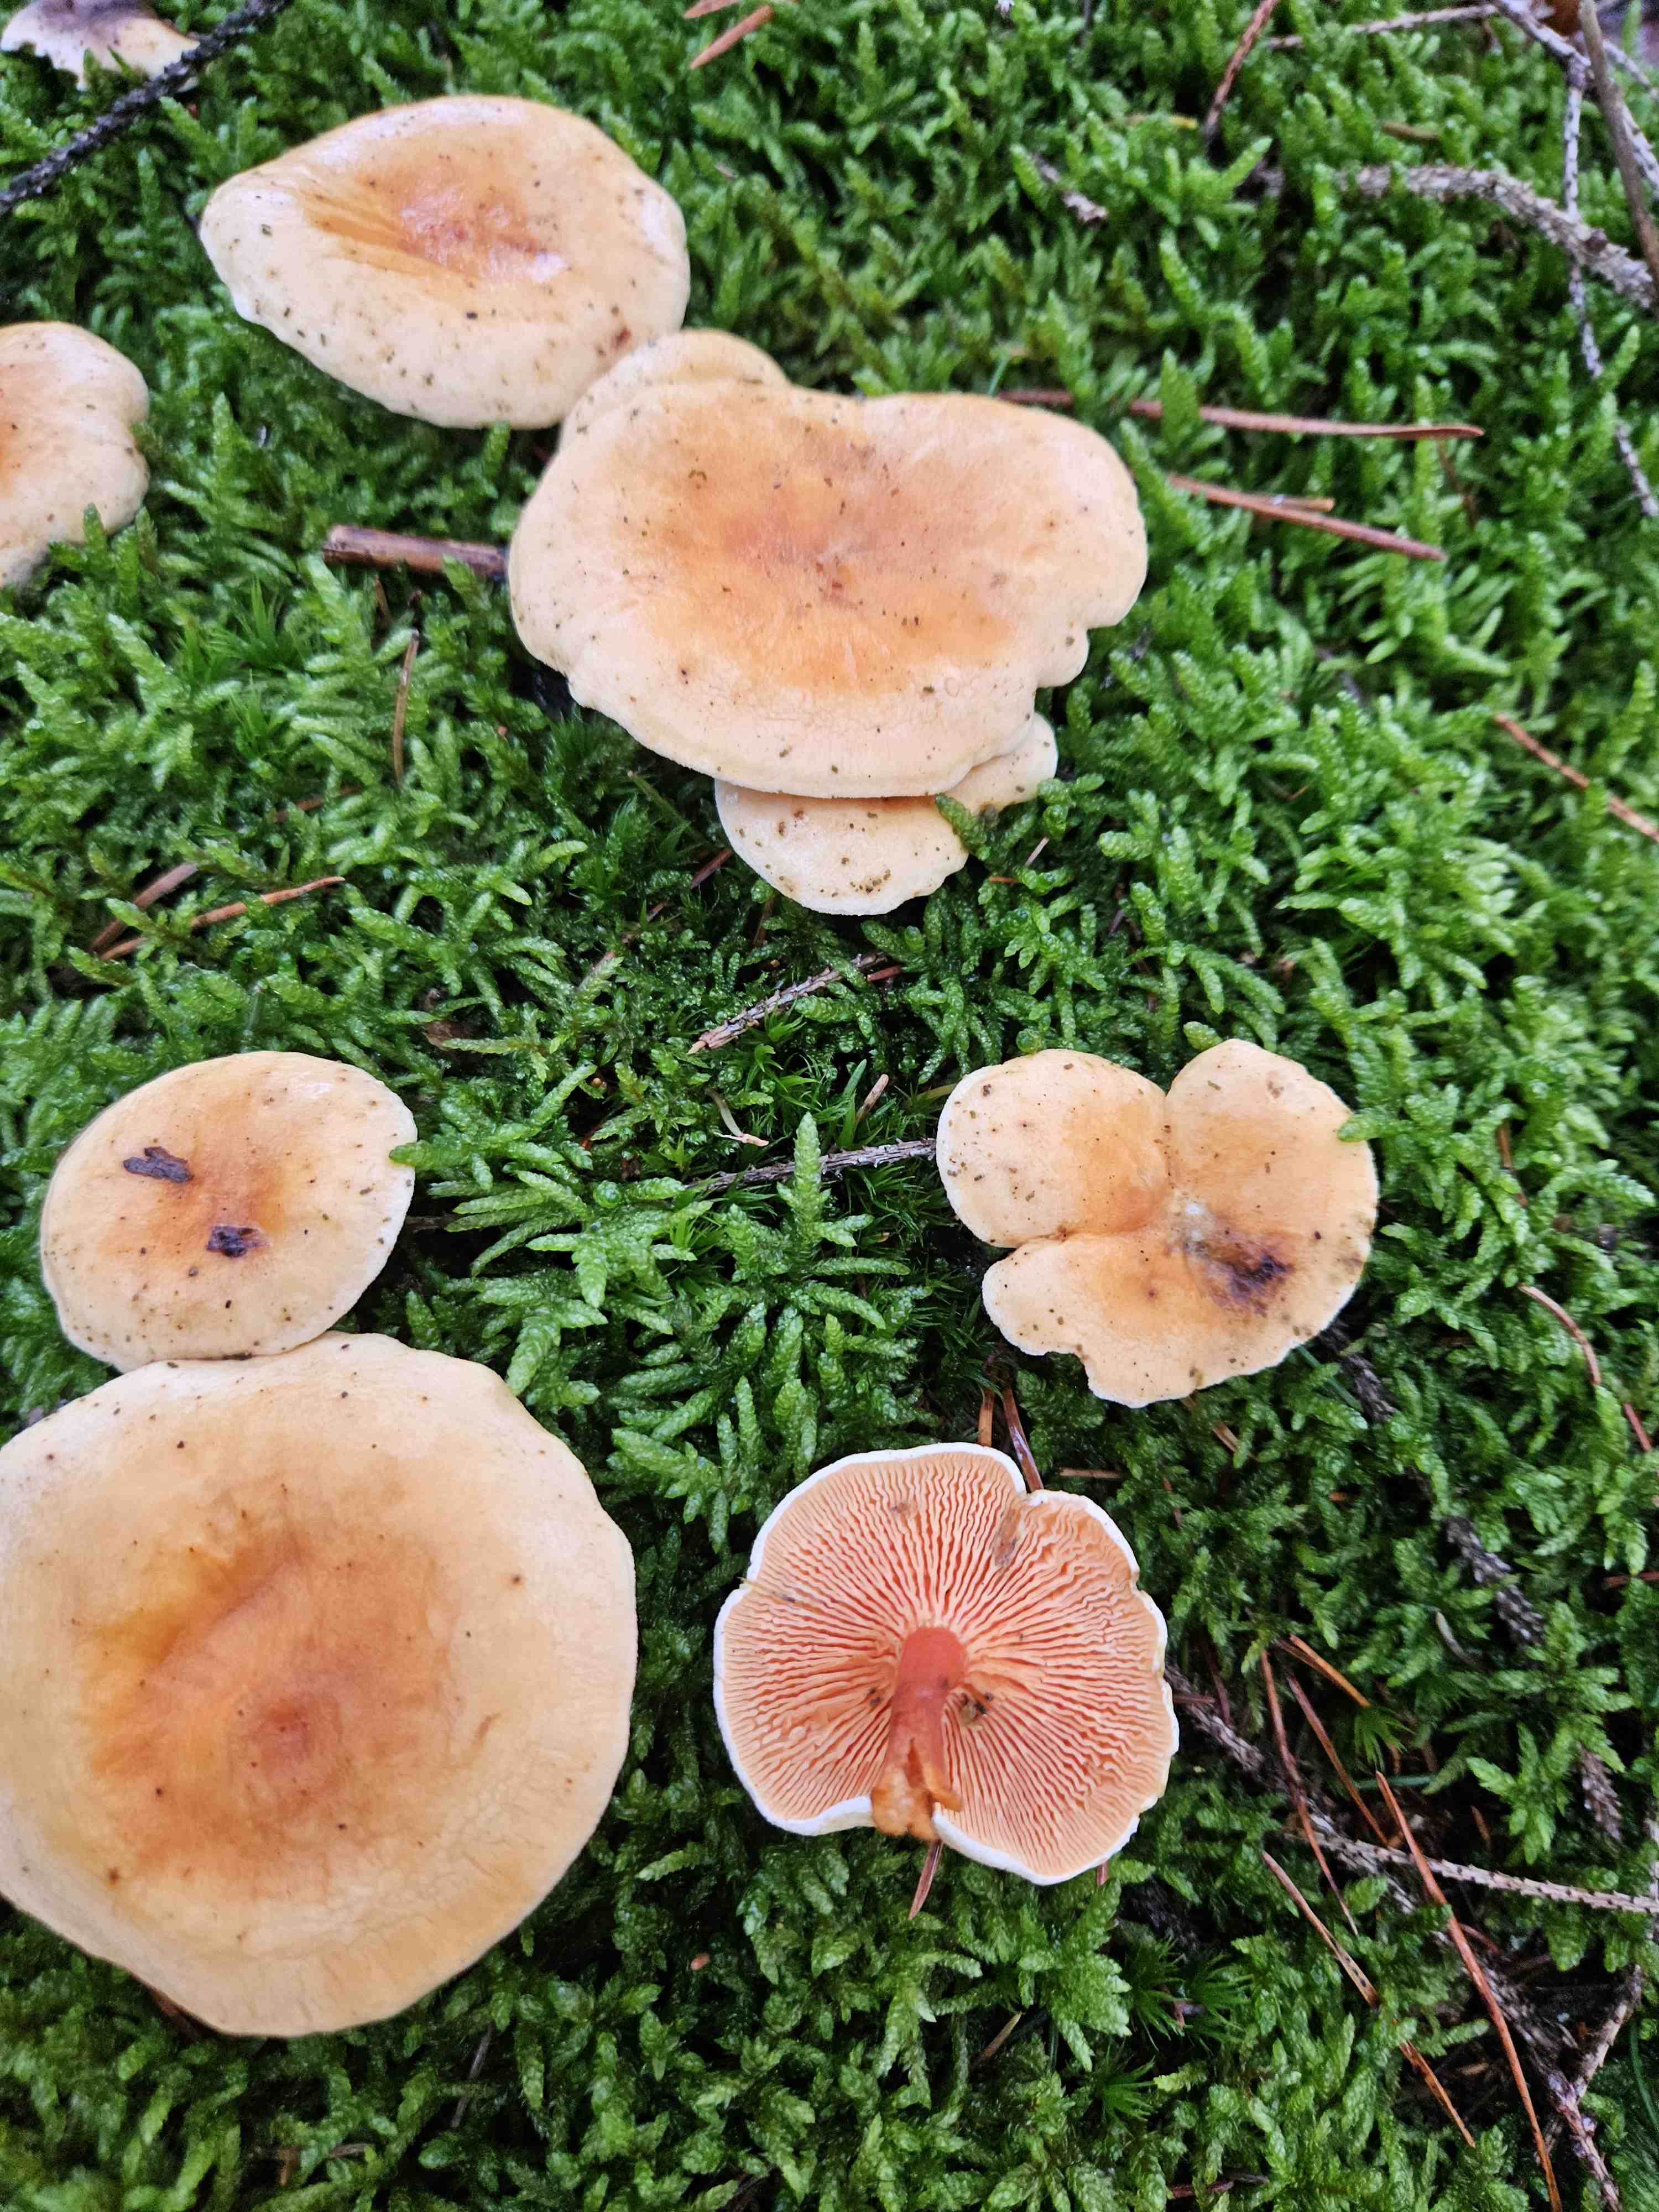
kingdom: Fungi
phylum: Basidiomycota
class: Agaricomycetes
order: Boletales
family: Hygrophoropsidaceae
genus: Hygrophoropsis
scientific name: Hygrophoropsis aurantiaca
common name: almindelig orangekantarel
